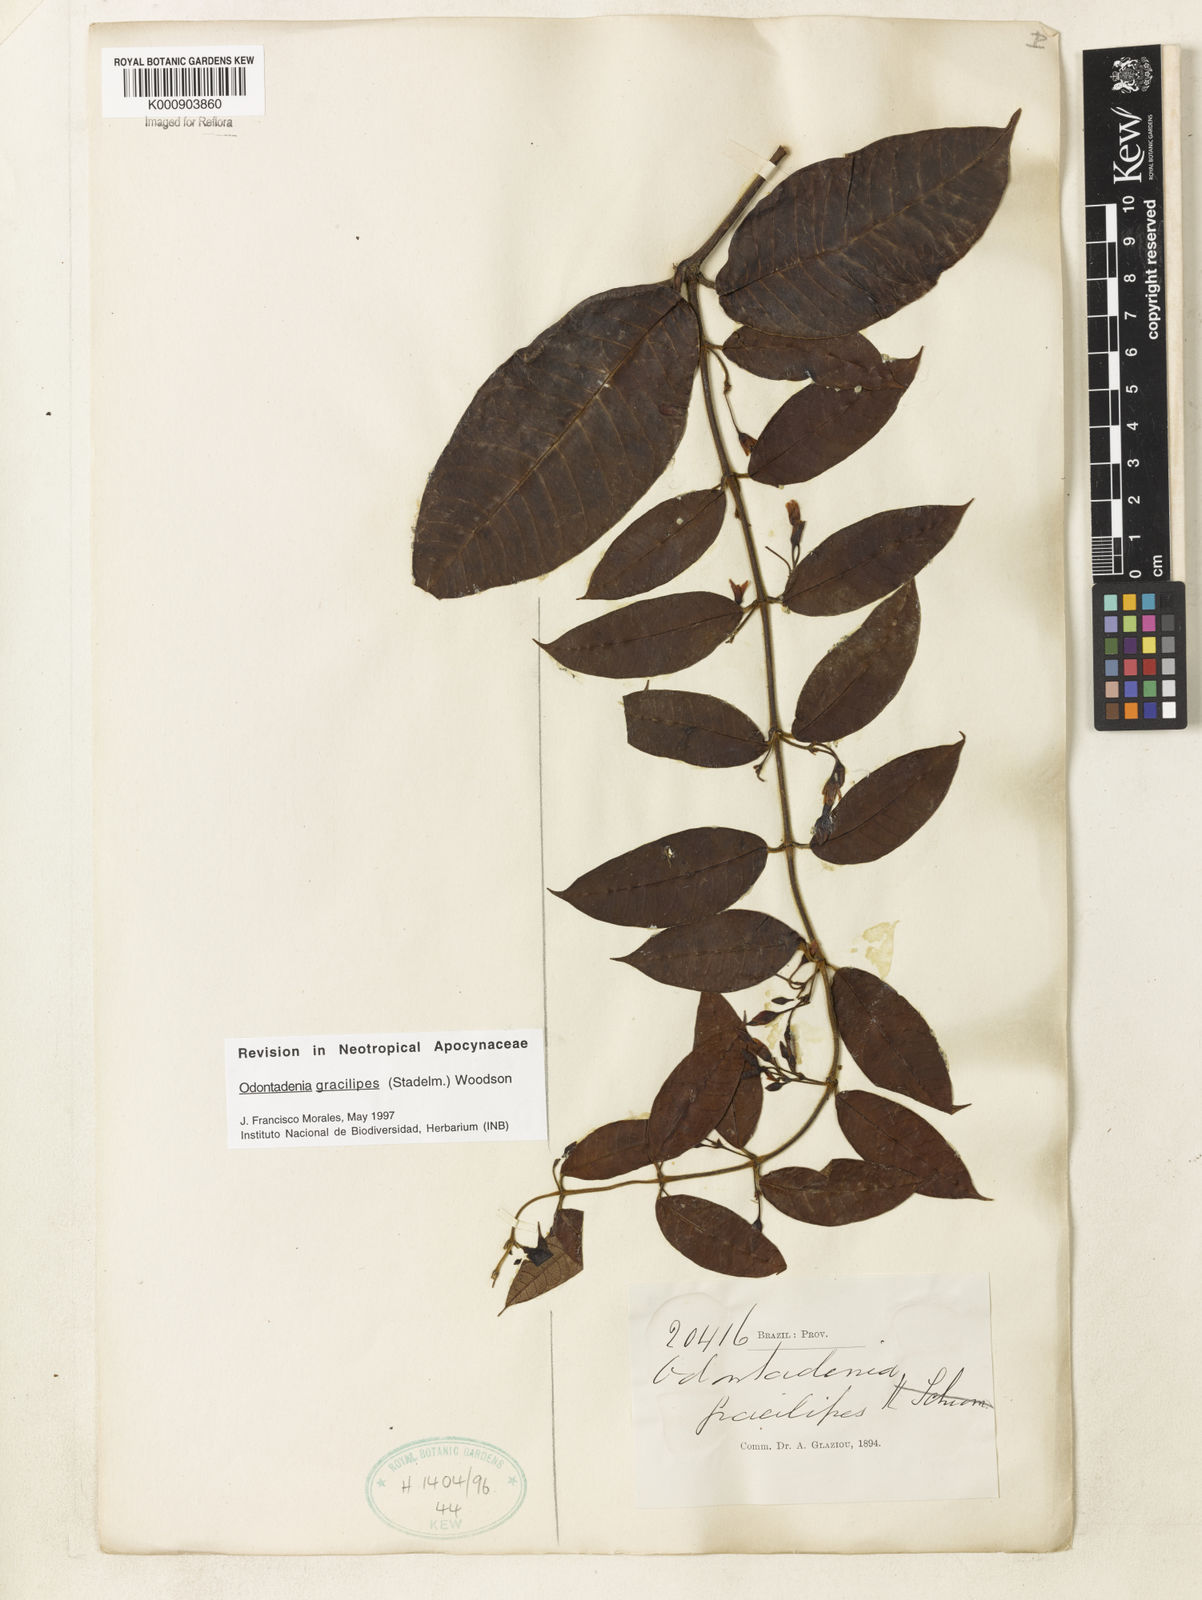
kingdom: Plantae
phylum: Tracheophyta
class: Magnoliopsida
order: Gentianales
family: Apocynaceae
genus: Odontadenia
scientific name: Odontadenia gracilipes
